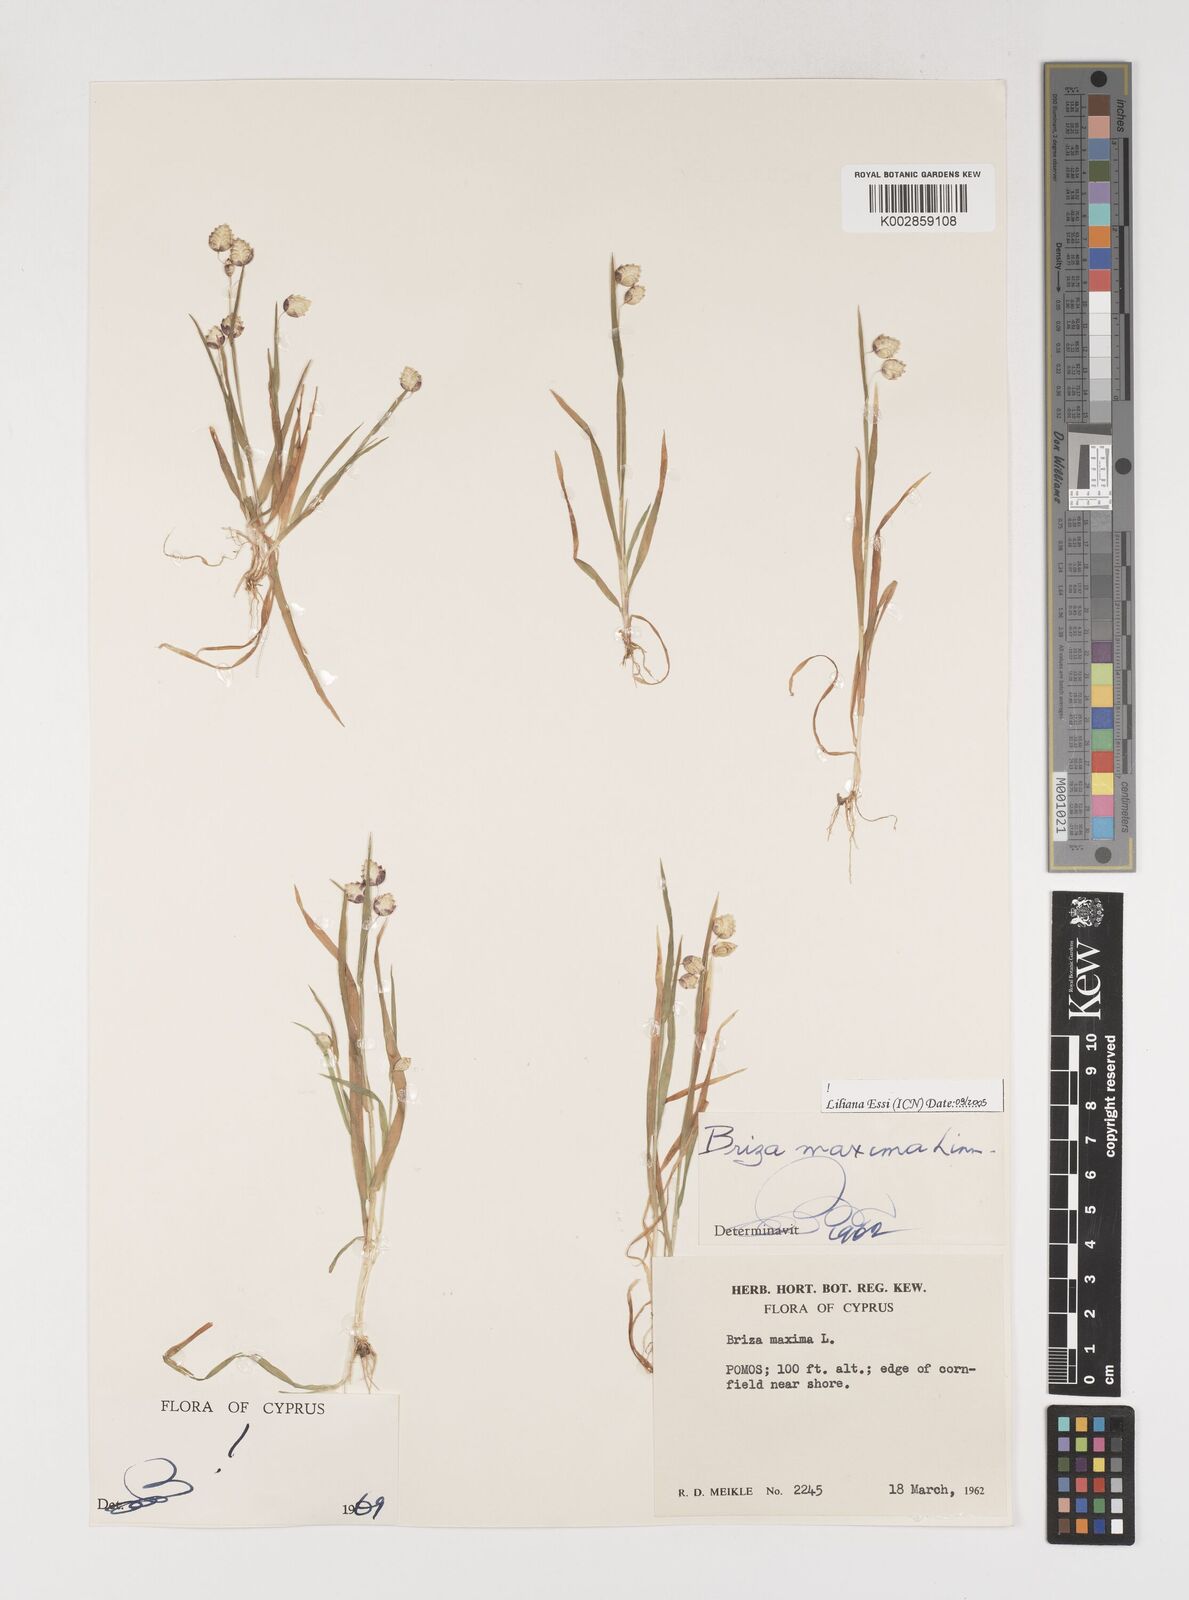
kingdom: Plantae
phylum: Tracheophyta
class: Liliopsida
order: Poales
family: Poaceae
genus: Briza
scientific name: Briza maxima
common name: Big quakinggrass
